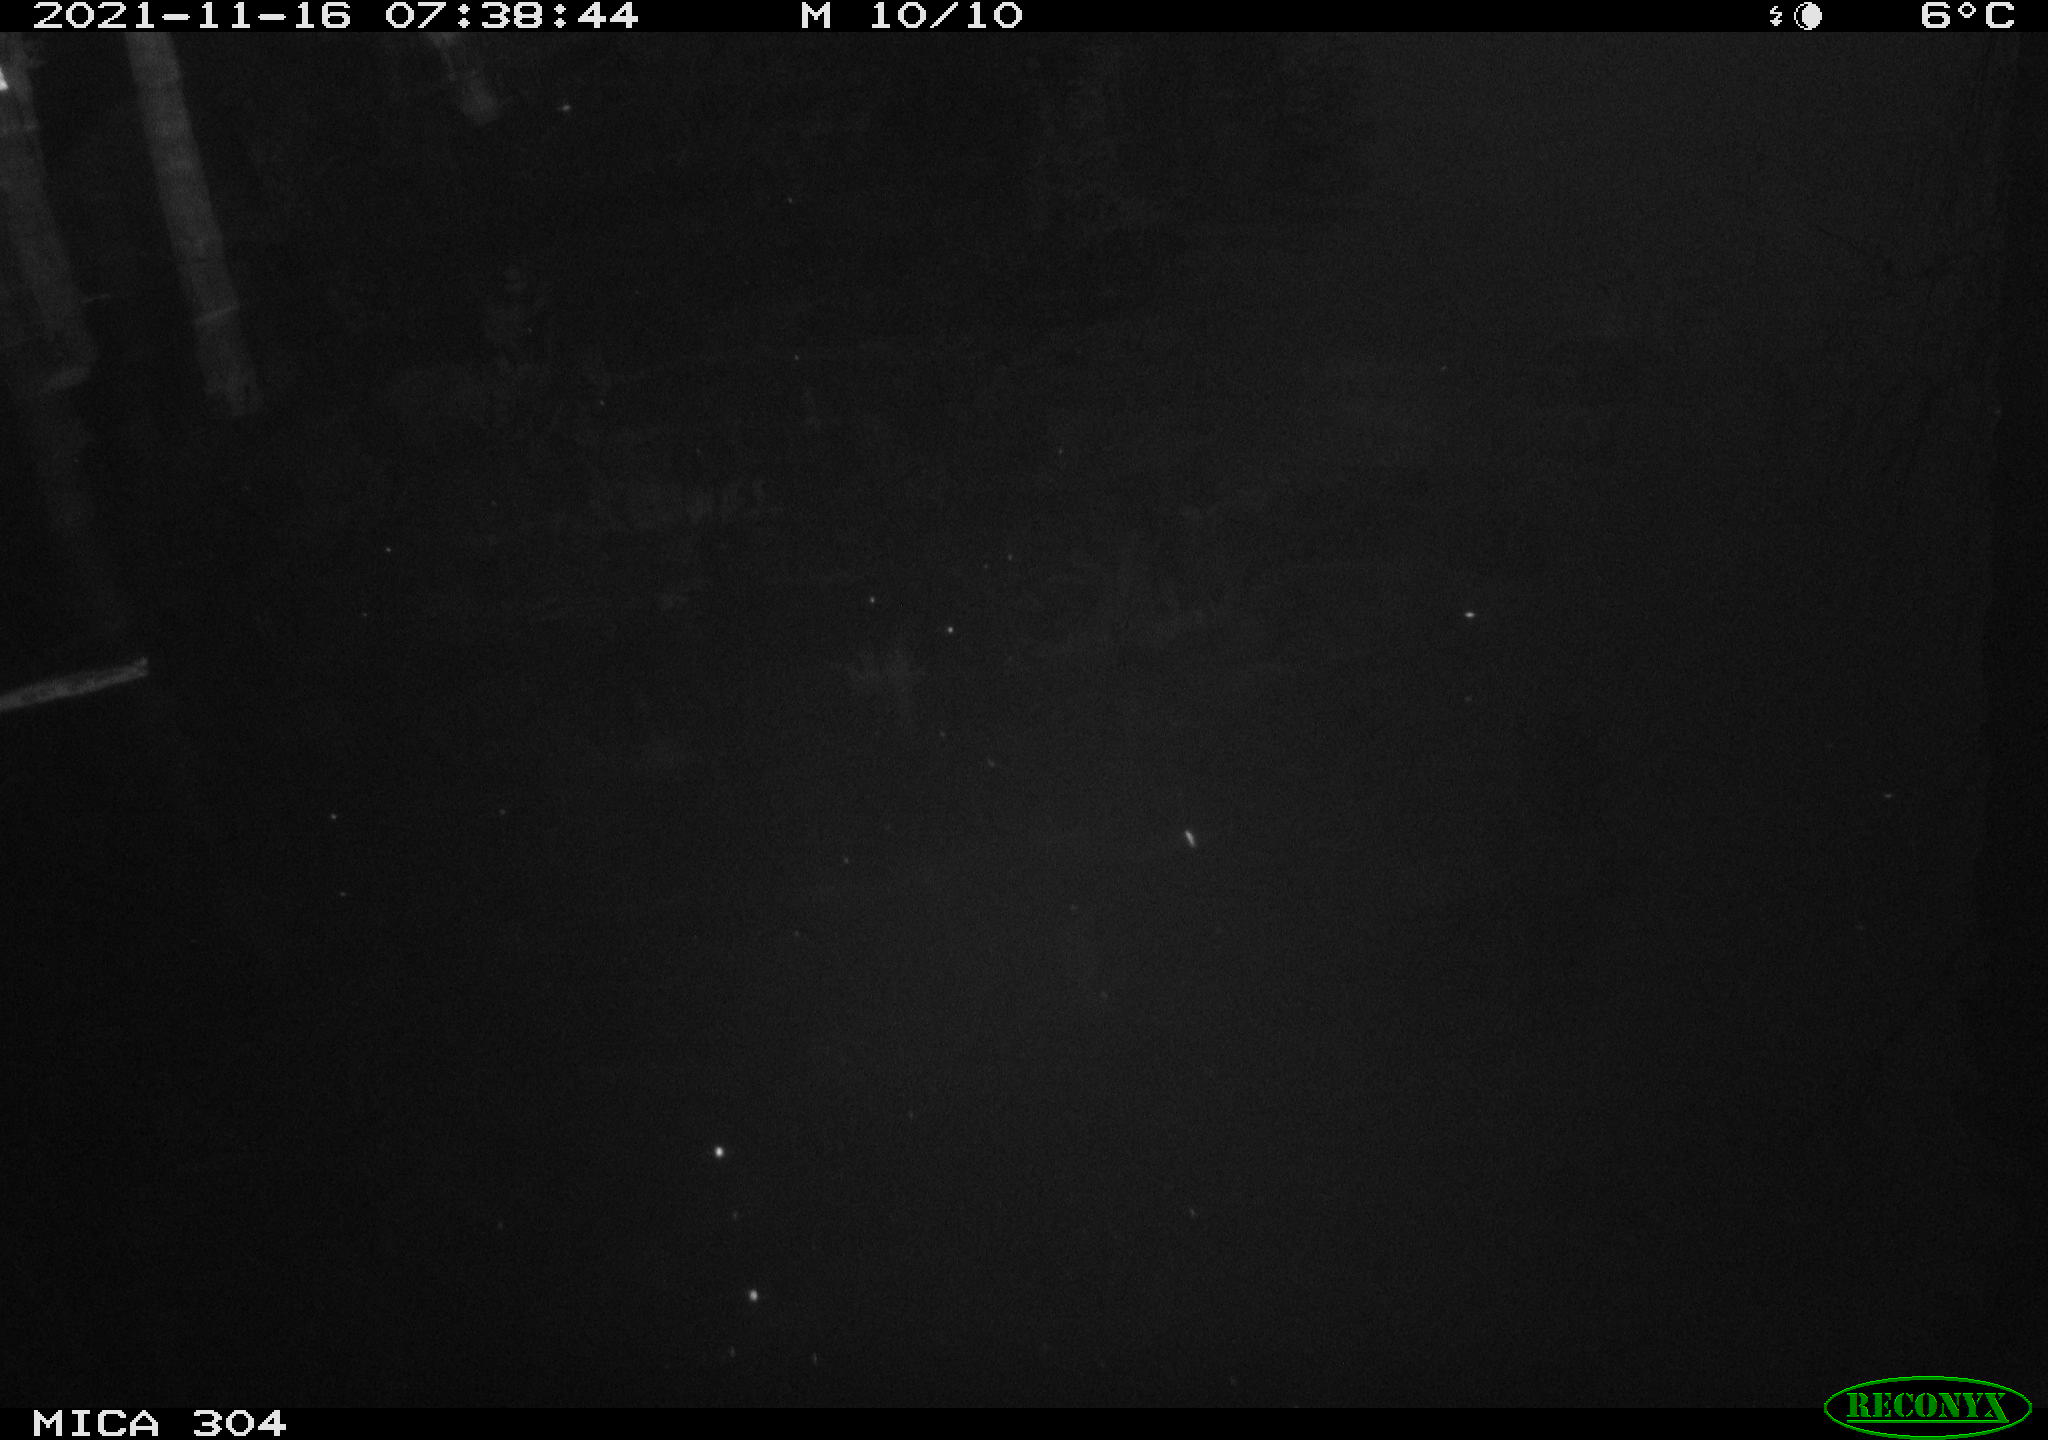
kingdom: Animalia
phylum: Chordata
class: Aves
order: Gruiformes
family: Rallidae
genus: Fulica
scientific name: Fulica atra
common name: Eurasian coot
